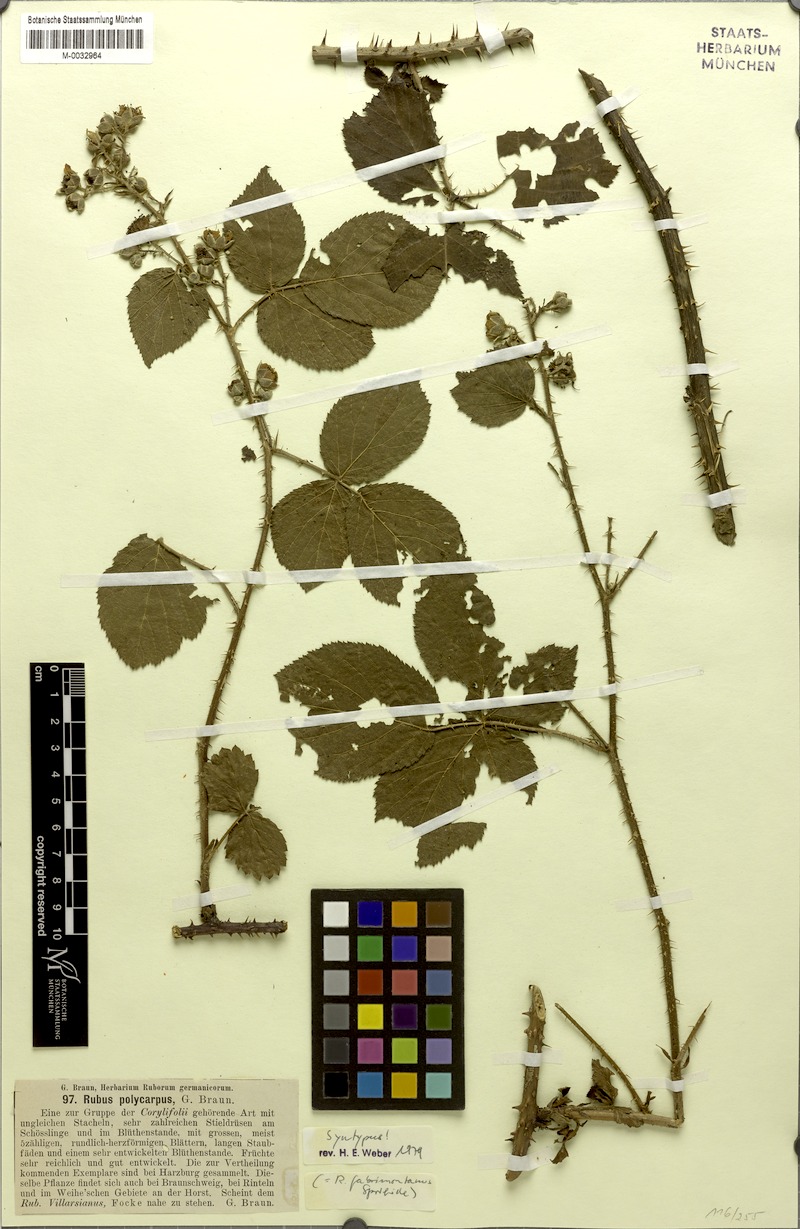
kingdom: Plantae
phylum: Tracheophyta
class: Magnoliopsida
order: Rosales
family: Rosaceae
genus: Rubus
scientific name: Rubus fabrimontanus
